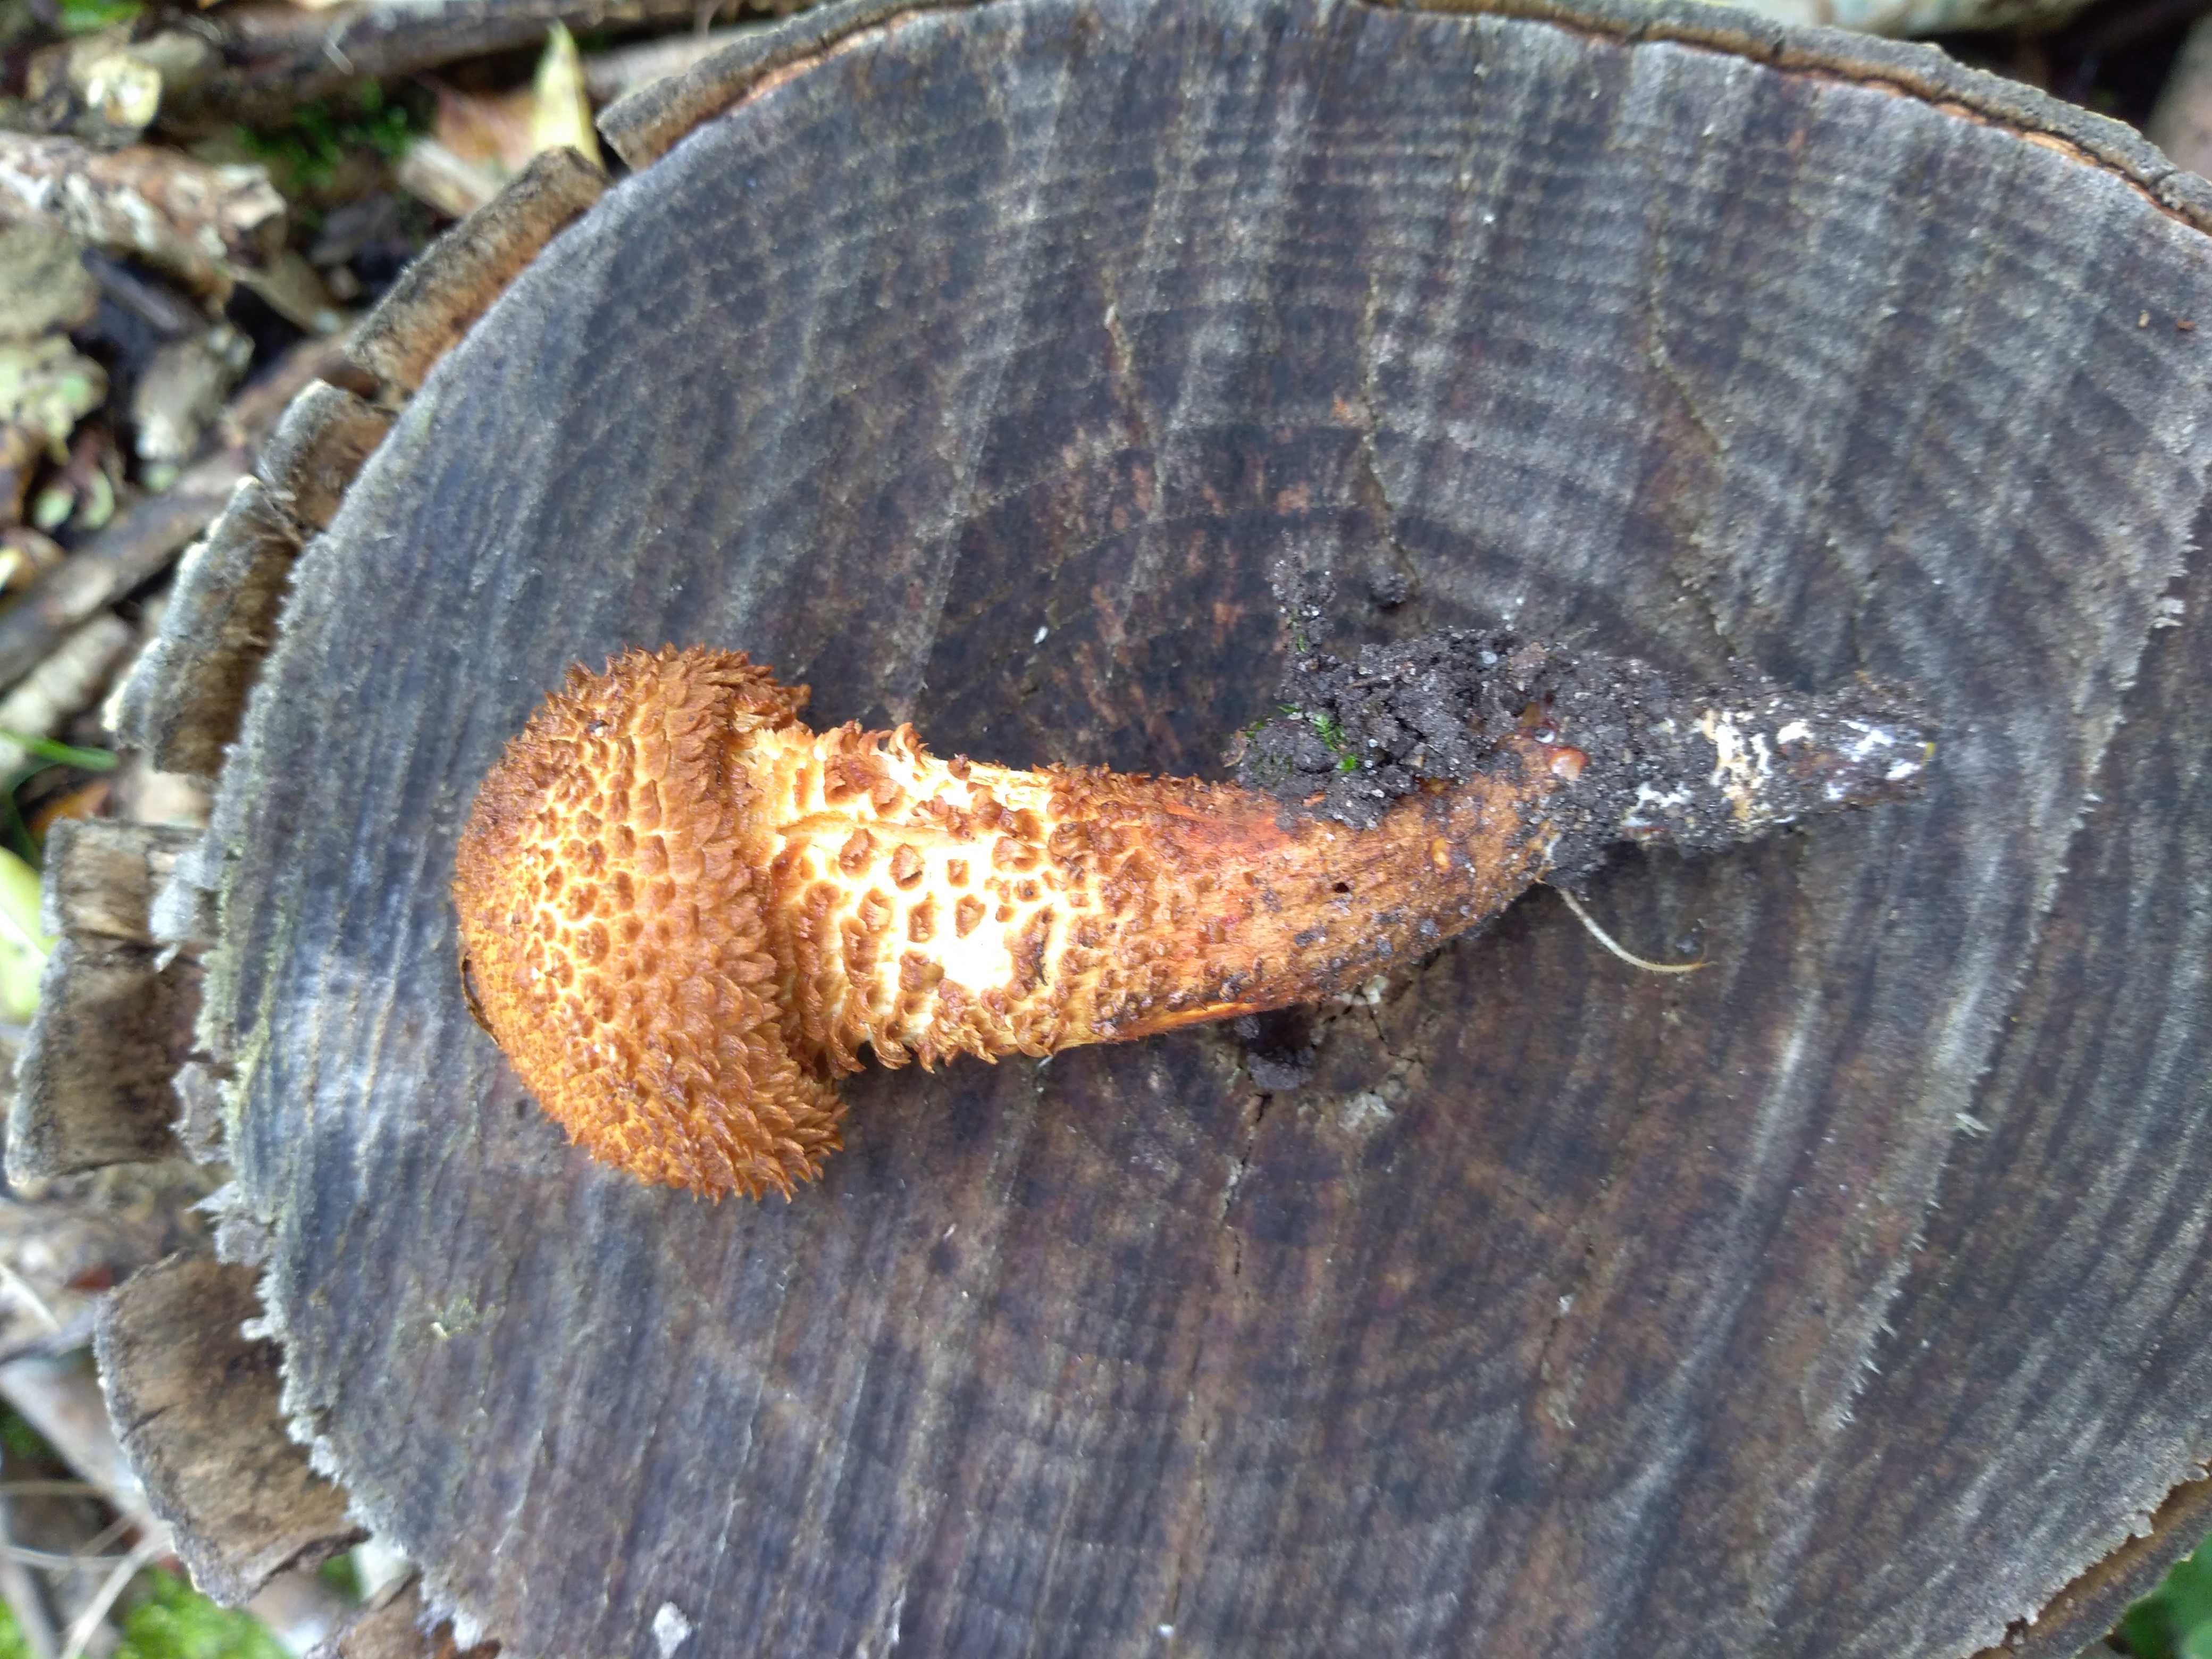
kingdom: Fungi
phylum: Basidiomycota
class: Agaricomycetes
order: Agaricales
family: Strophariaceae
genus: Pholiota
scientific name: Pholiota squarrosa
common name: krumskællet skælhat
